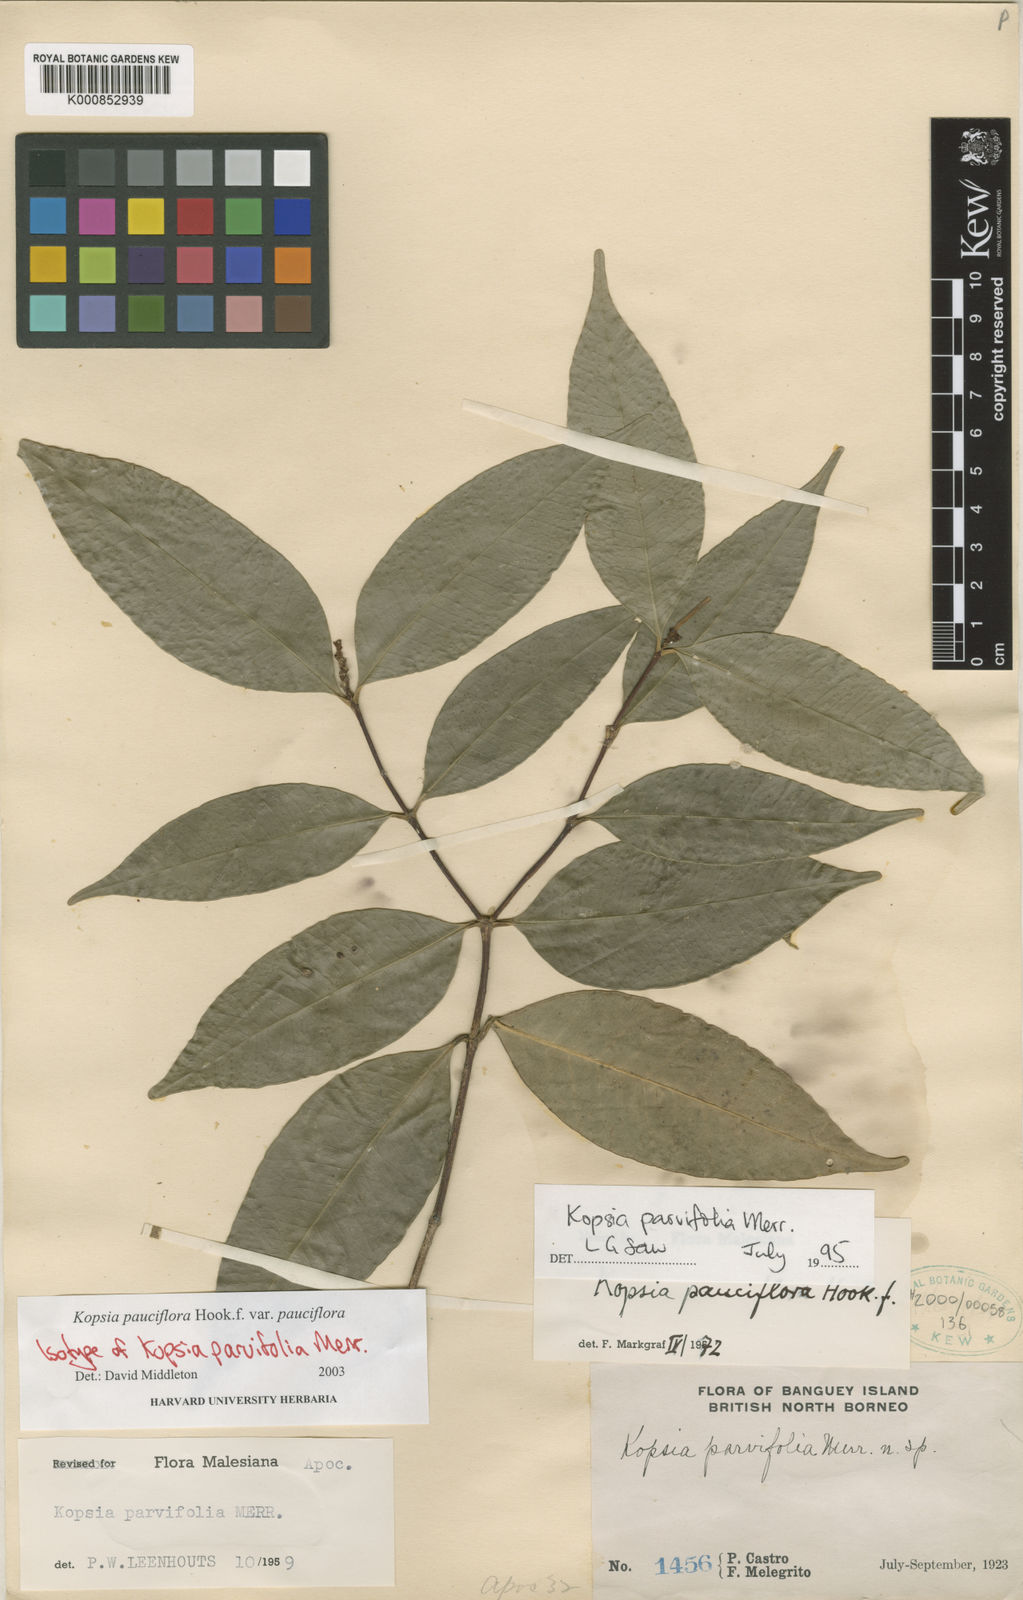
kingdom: Plantae
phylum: Tracheophyta
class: Magnoliopsida
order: Gentianales
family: Apocynaceae
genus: Kopsia
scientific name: Kopsia pauciflora
